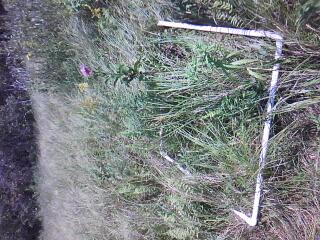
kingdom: Plantae
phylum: Tracheophyta
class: Liliopsida
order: Poales
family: Cyperaceae
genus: Carex
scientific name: Carex prairea
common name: Prairie sedge
